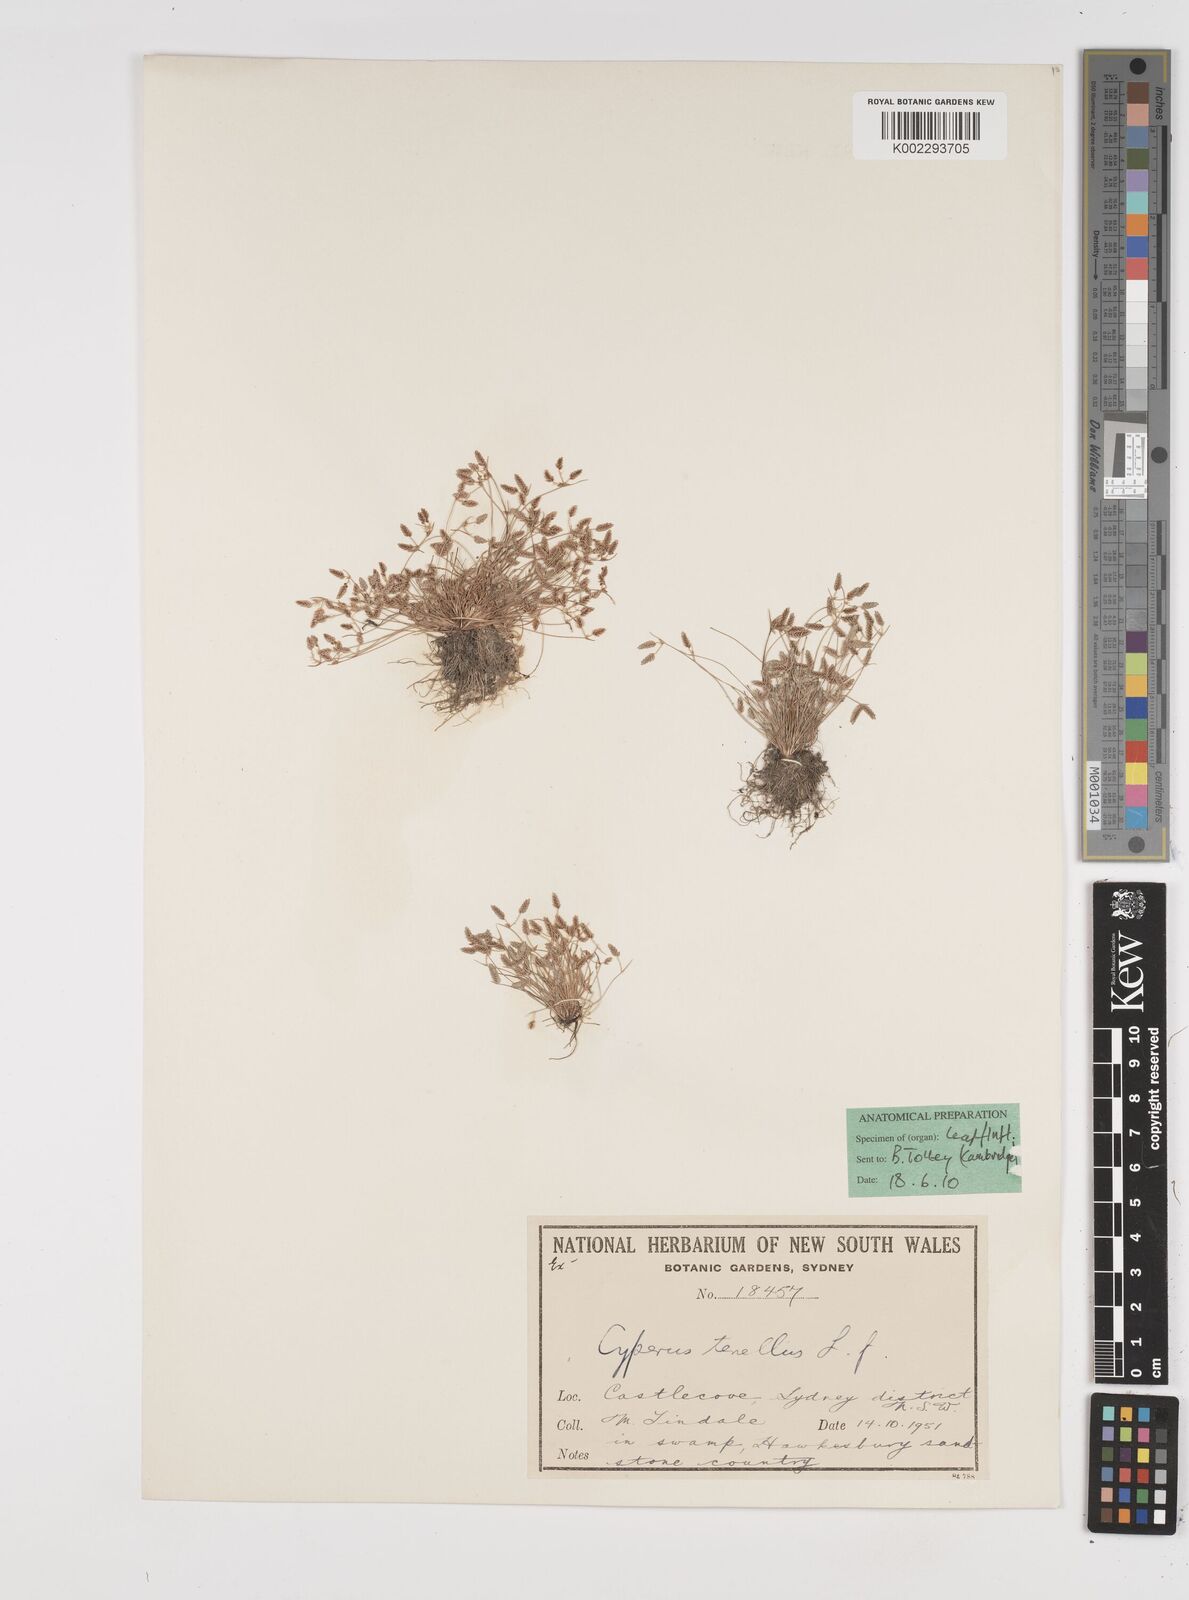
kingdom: Plantae
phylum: Tracheophyta
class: Liliopsida
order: Poales
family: Cyperaceae
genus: Isolepis
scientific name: Isolepis levynsiana
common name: Sedge
